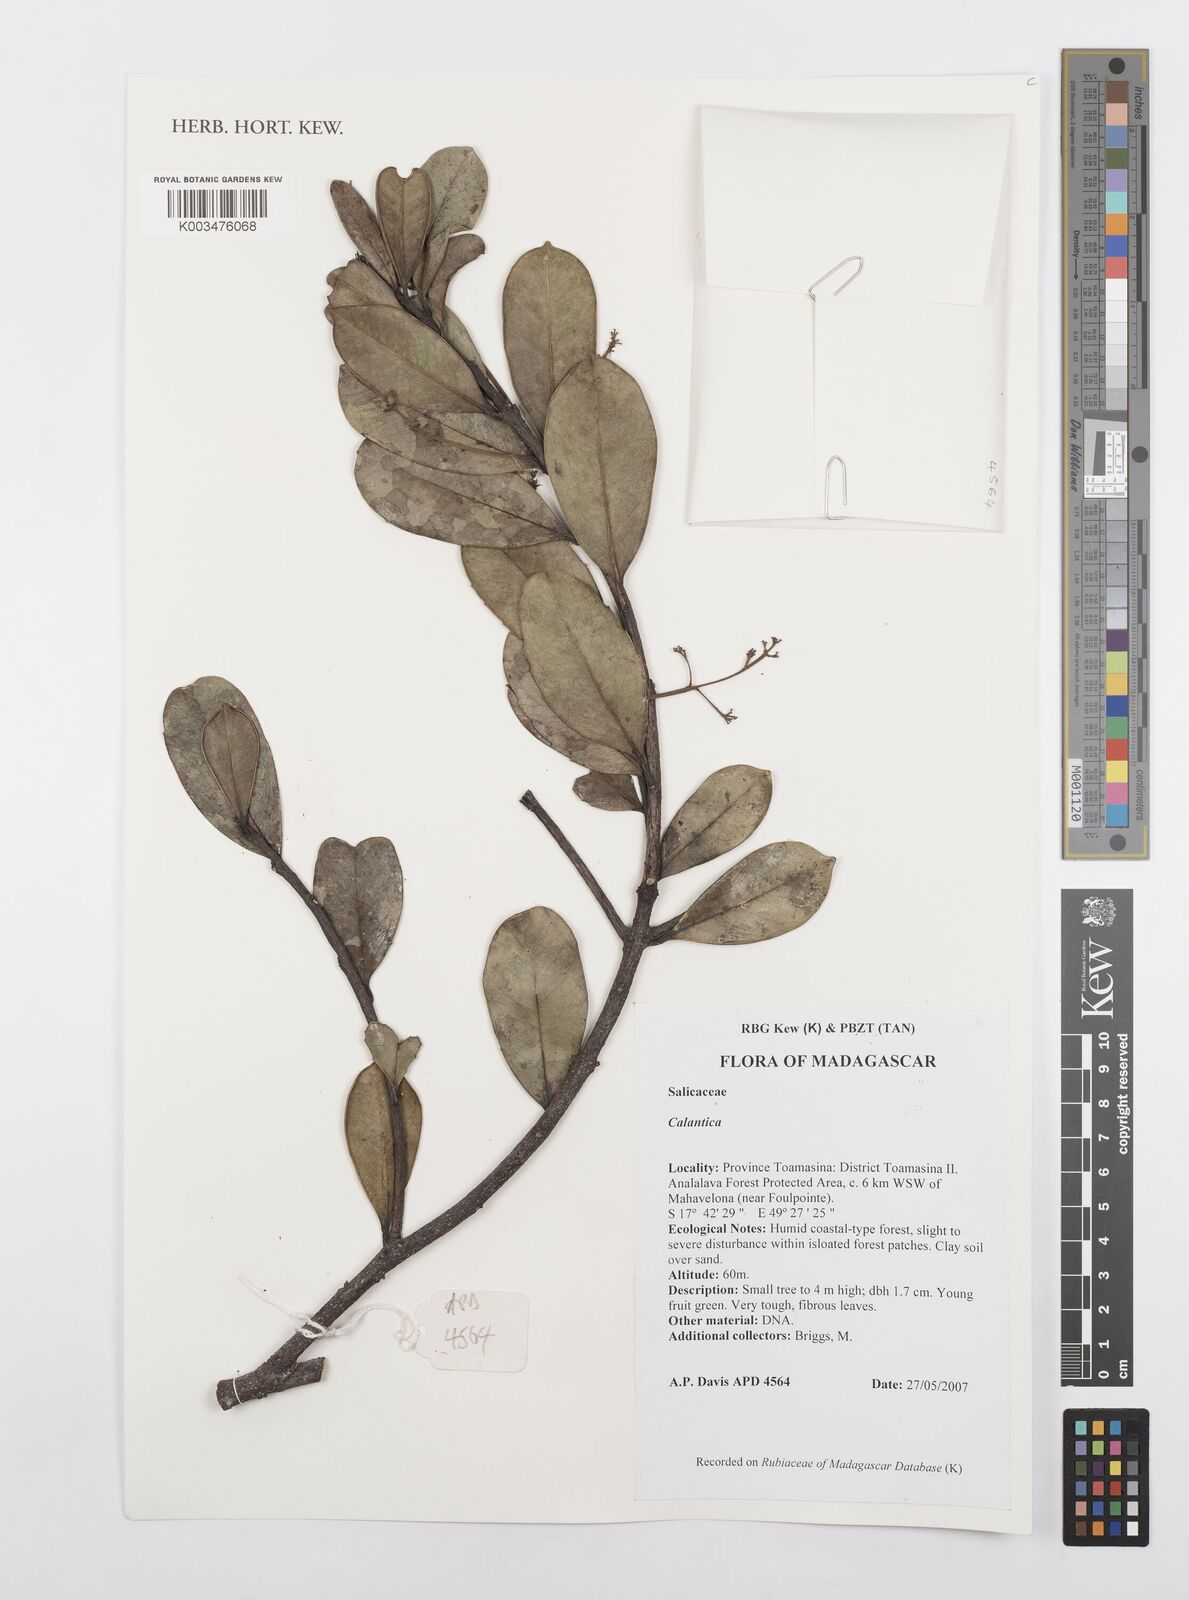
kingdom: Plantae
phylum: Tracheophyta
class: Magnoliopsida
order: Malpighiales
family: Salicaceae
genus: Calantica
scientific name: Calantica
